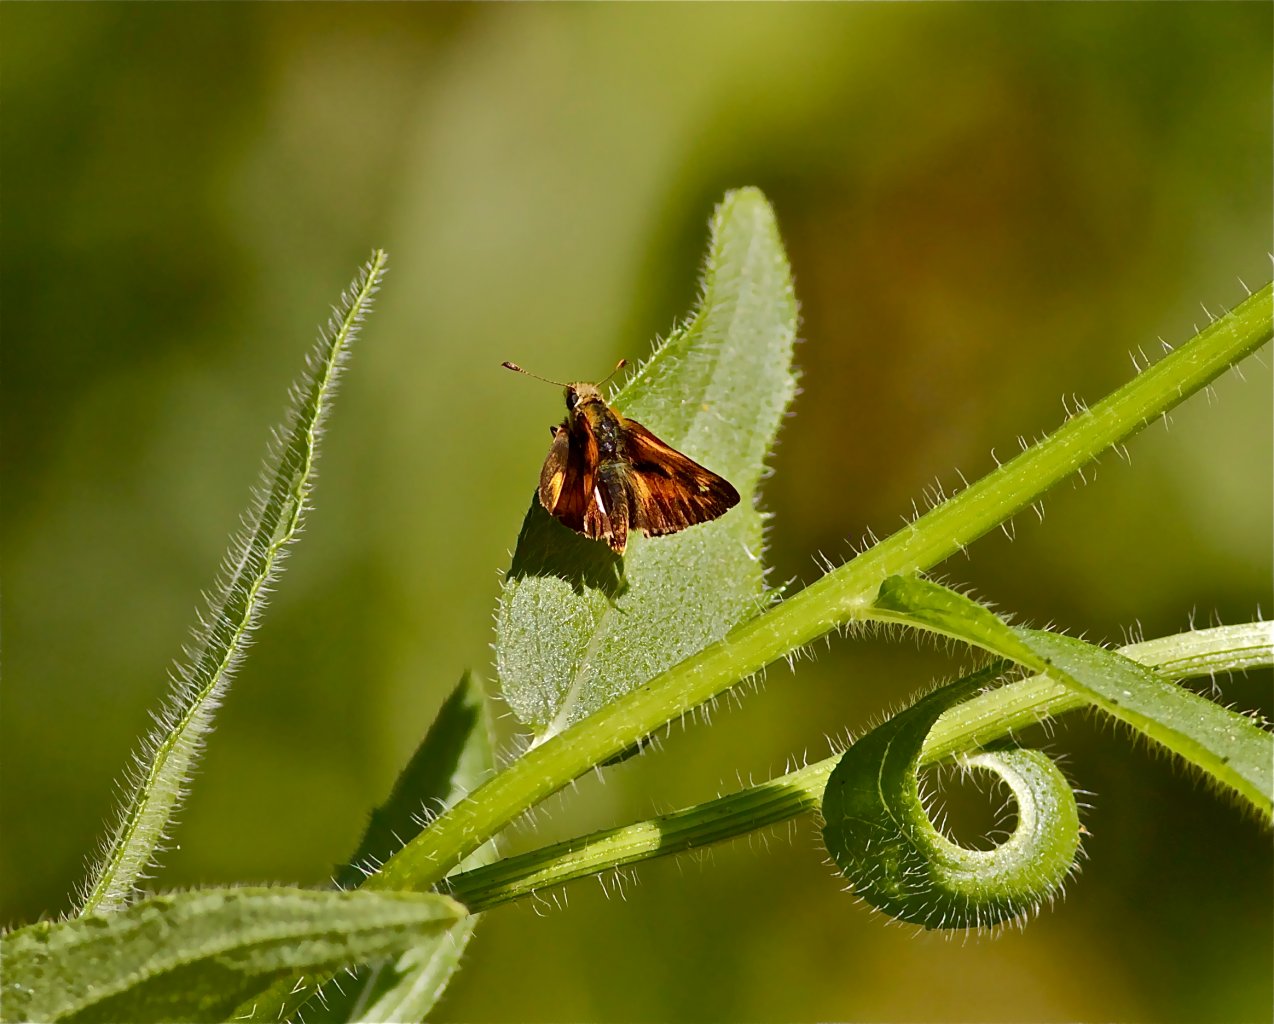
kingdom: Animalia
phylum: Arthropoda
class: Insecta
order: Lepidoptera
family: Hesperiidae
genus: Ochlodes
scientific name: Ochlodes sylvanoides
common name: Woodland Skipper
